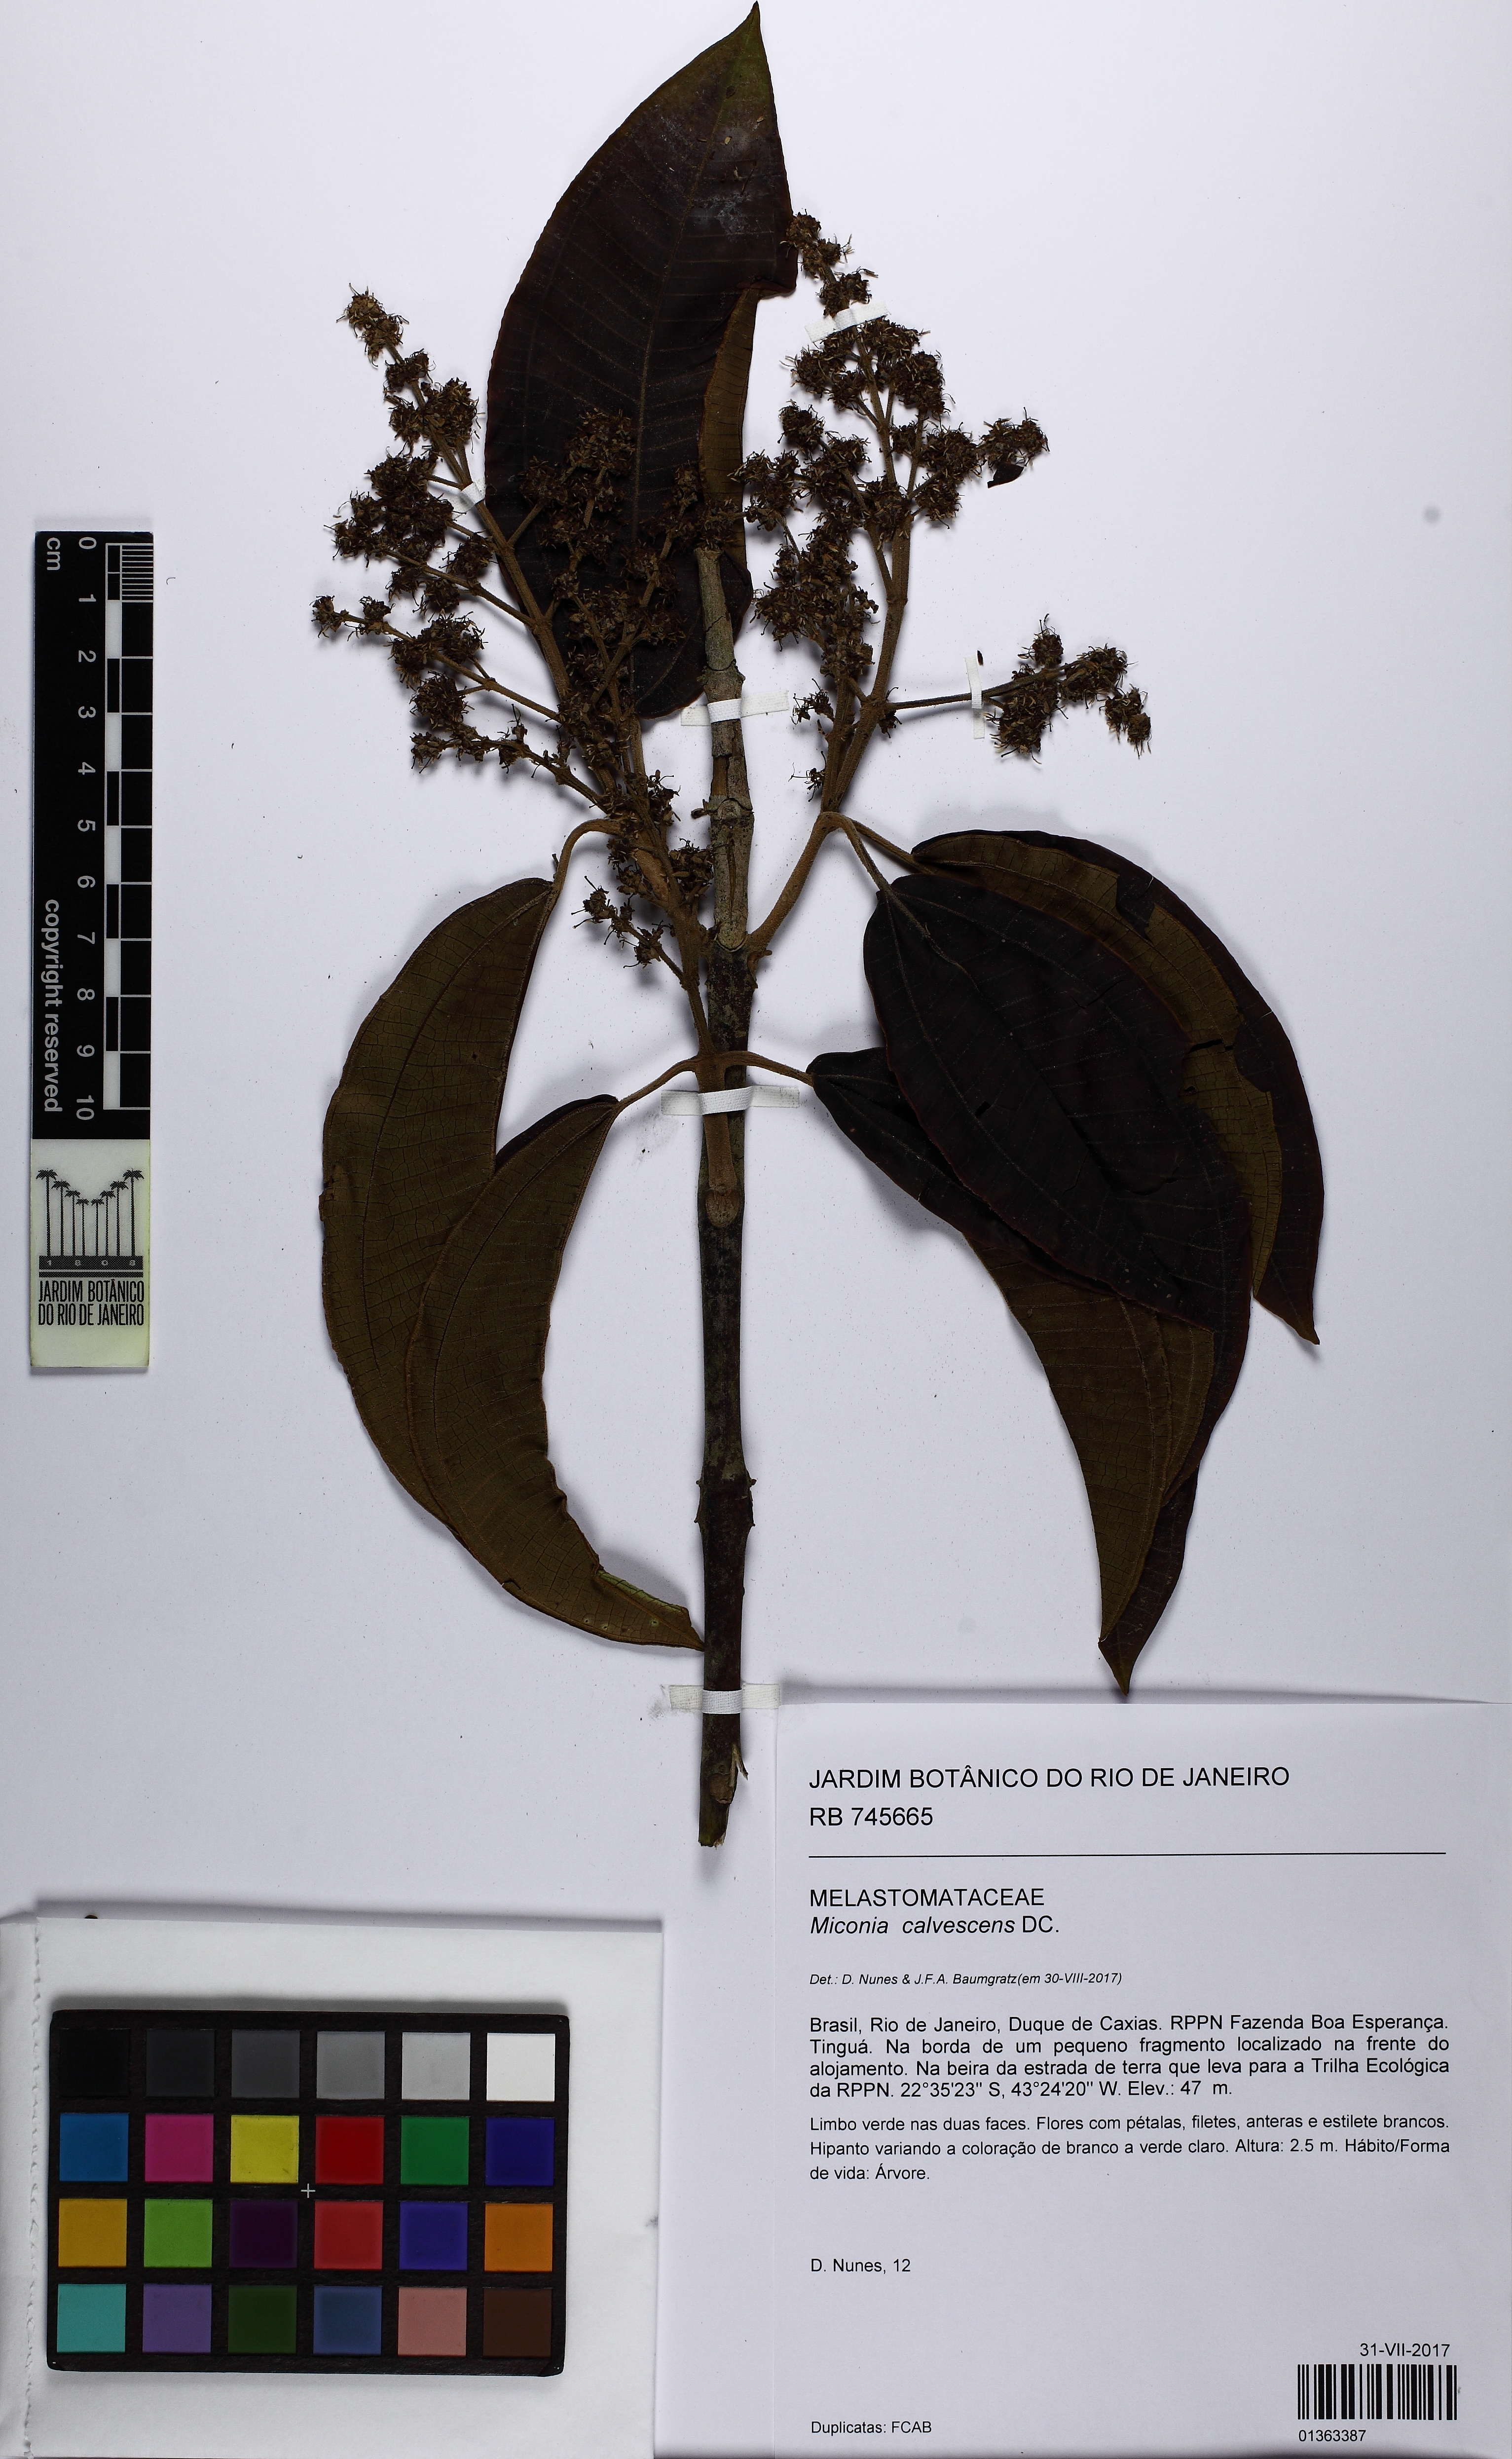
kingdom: Plantae
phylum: Tracheophyta
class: Magnoliopsida
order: Myrtales
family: Melastomataceae
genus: Miconia
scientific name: Miconia calvescens
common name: Purple plague
